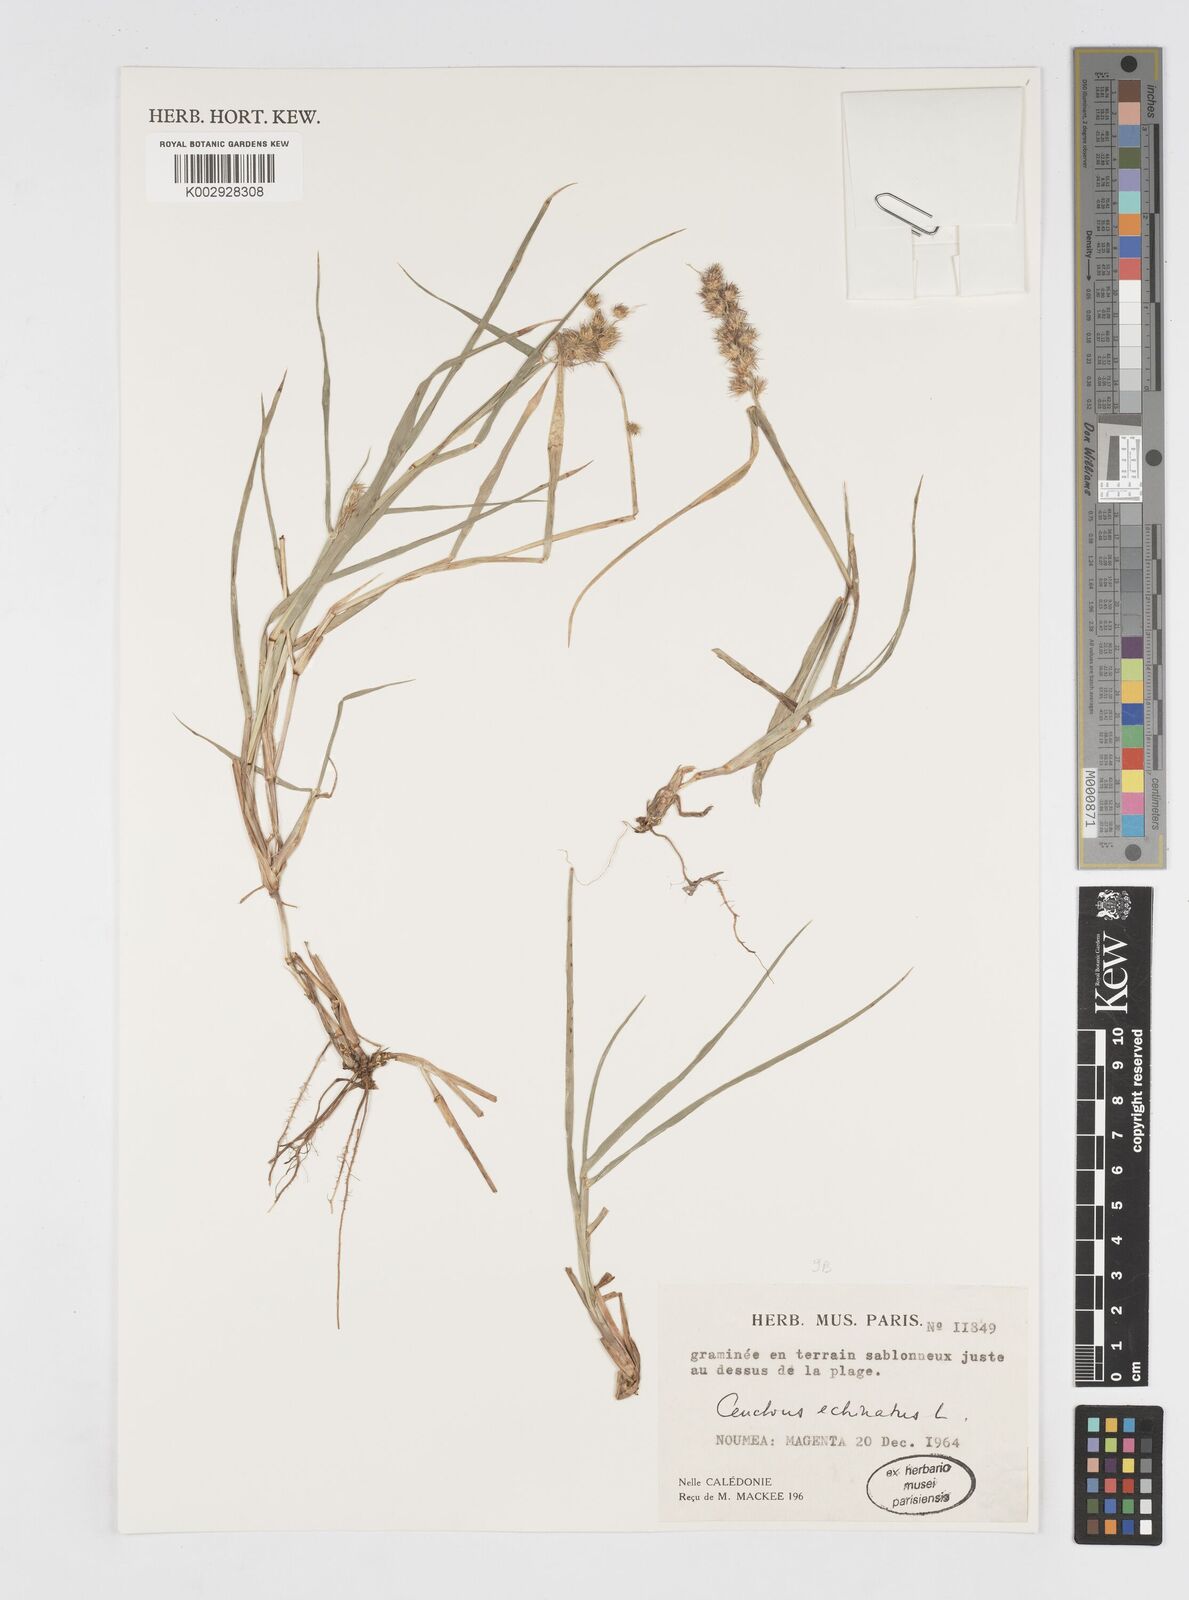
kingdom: Plantae
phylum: Tracheophyta
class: Liliopsida
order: Poales
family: Poaceae
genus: Cenchrus
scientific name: Cenchrus echinatus
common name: Southern sandbur
